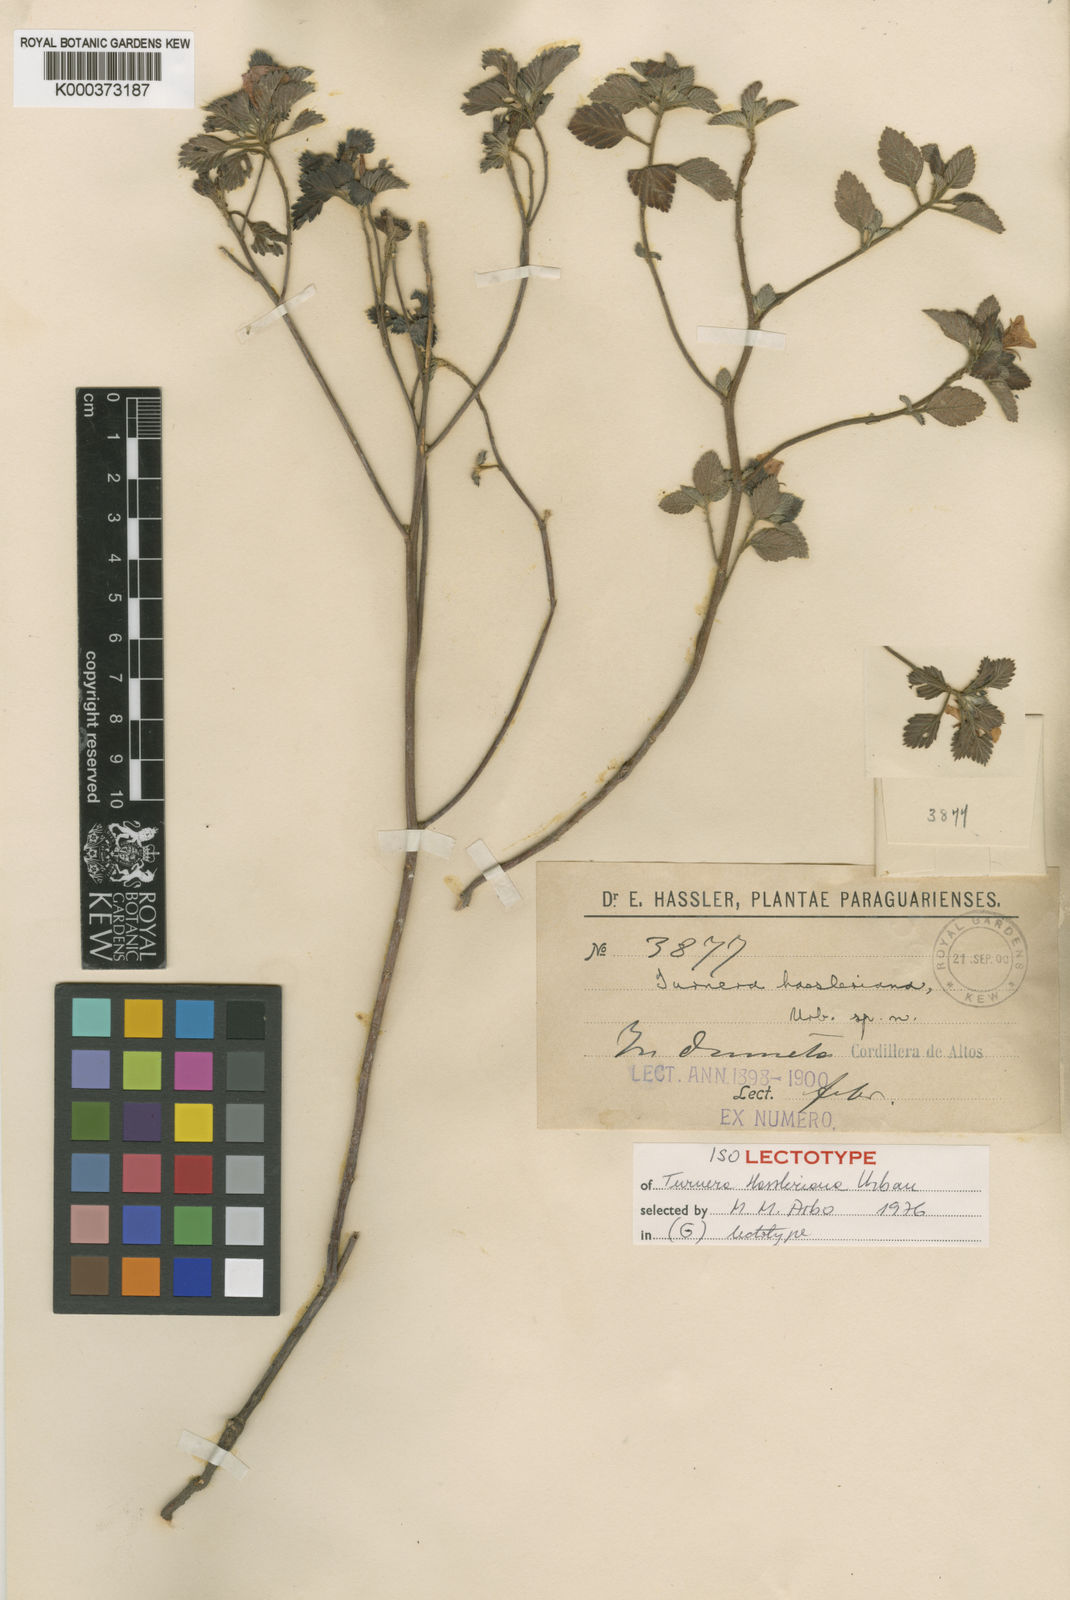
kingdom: Plantae
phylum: Tracheophyta
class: Magnoliopsida
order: Malpighiales
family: Turneraceae
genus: Turnera
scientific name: Turnera hassleriana
